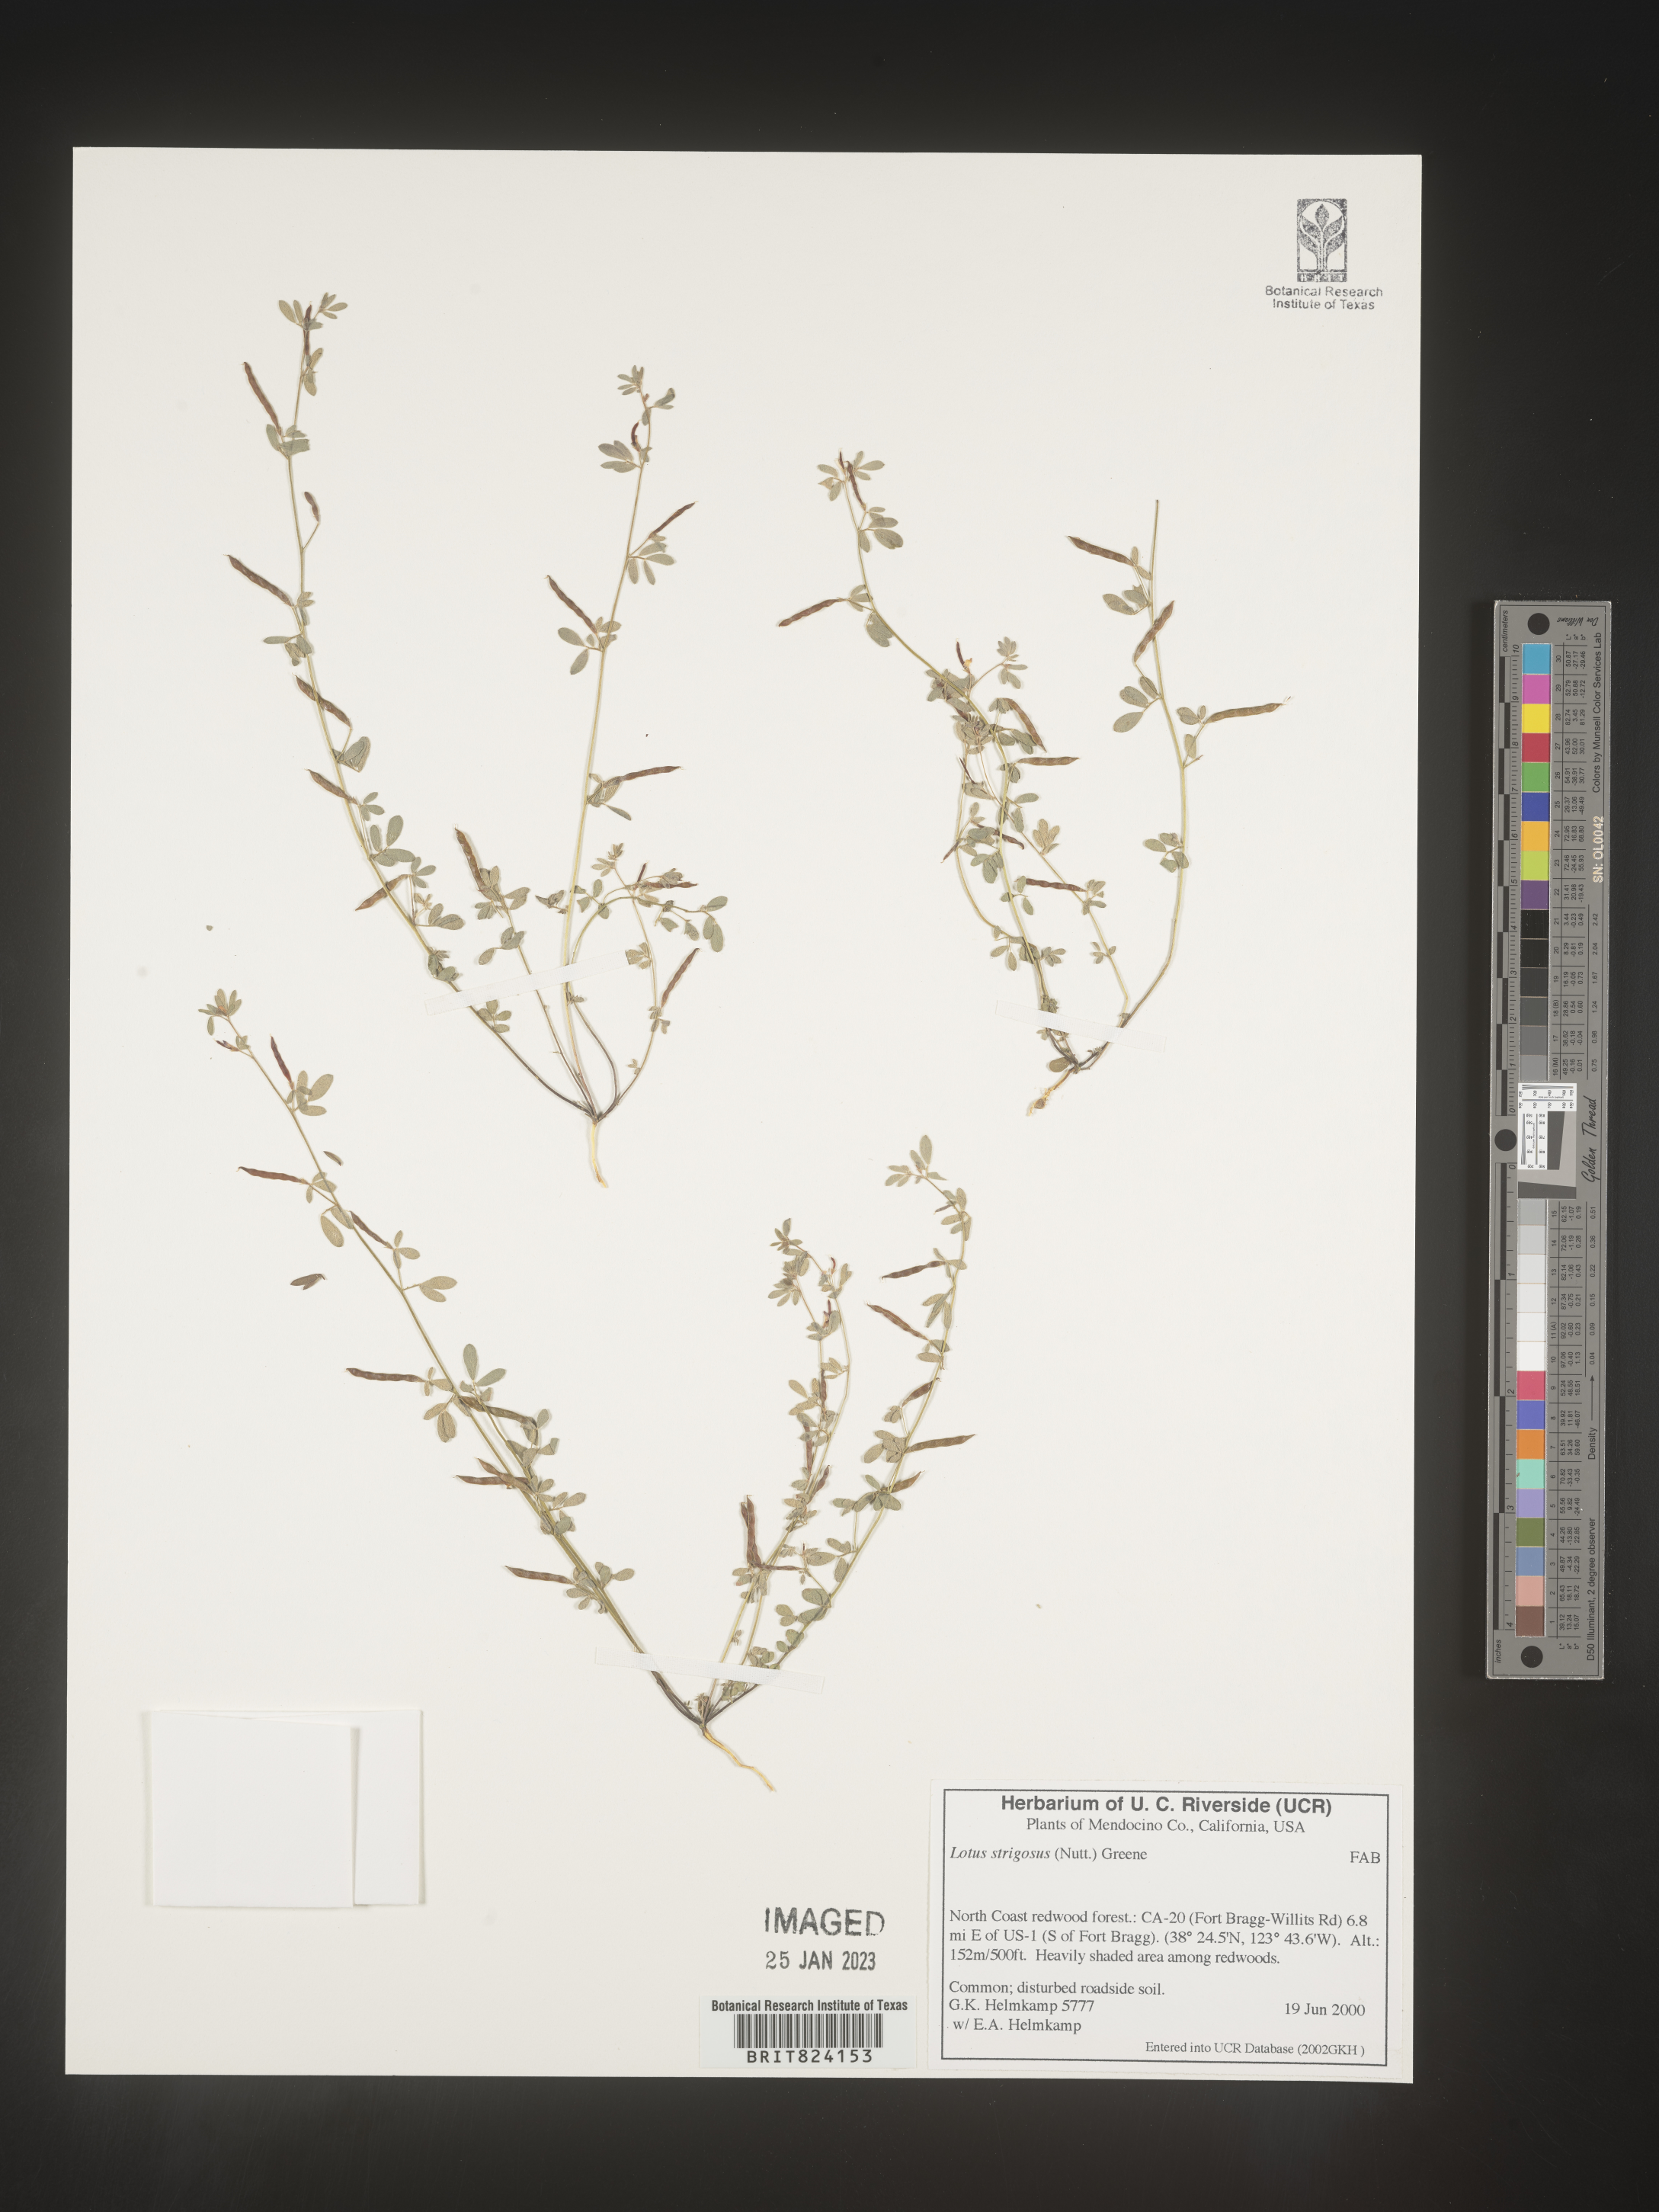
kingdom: Plantae
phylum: Tracheophyta
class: Magnoliopsida
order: Fabales
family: Fabaceae
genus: Lotus
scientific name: Lotus
